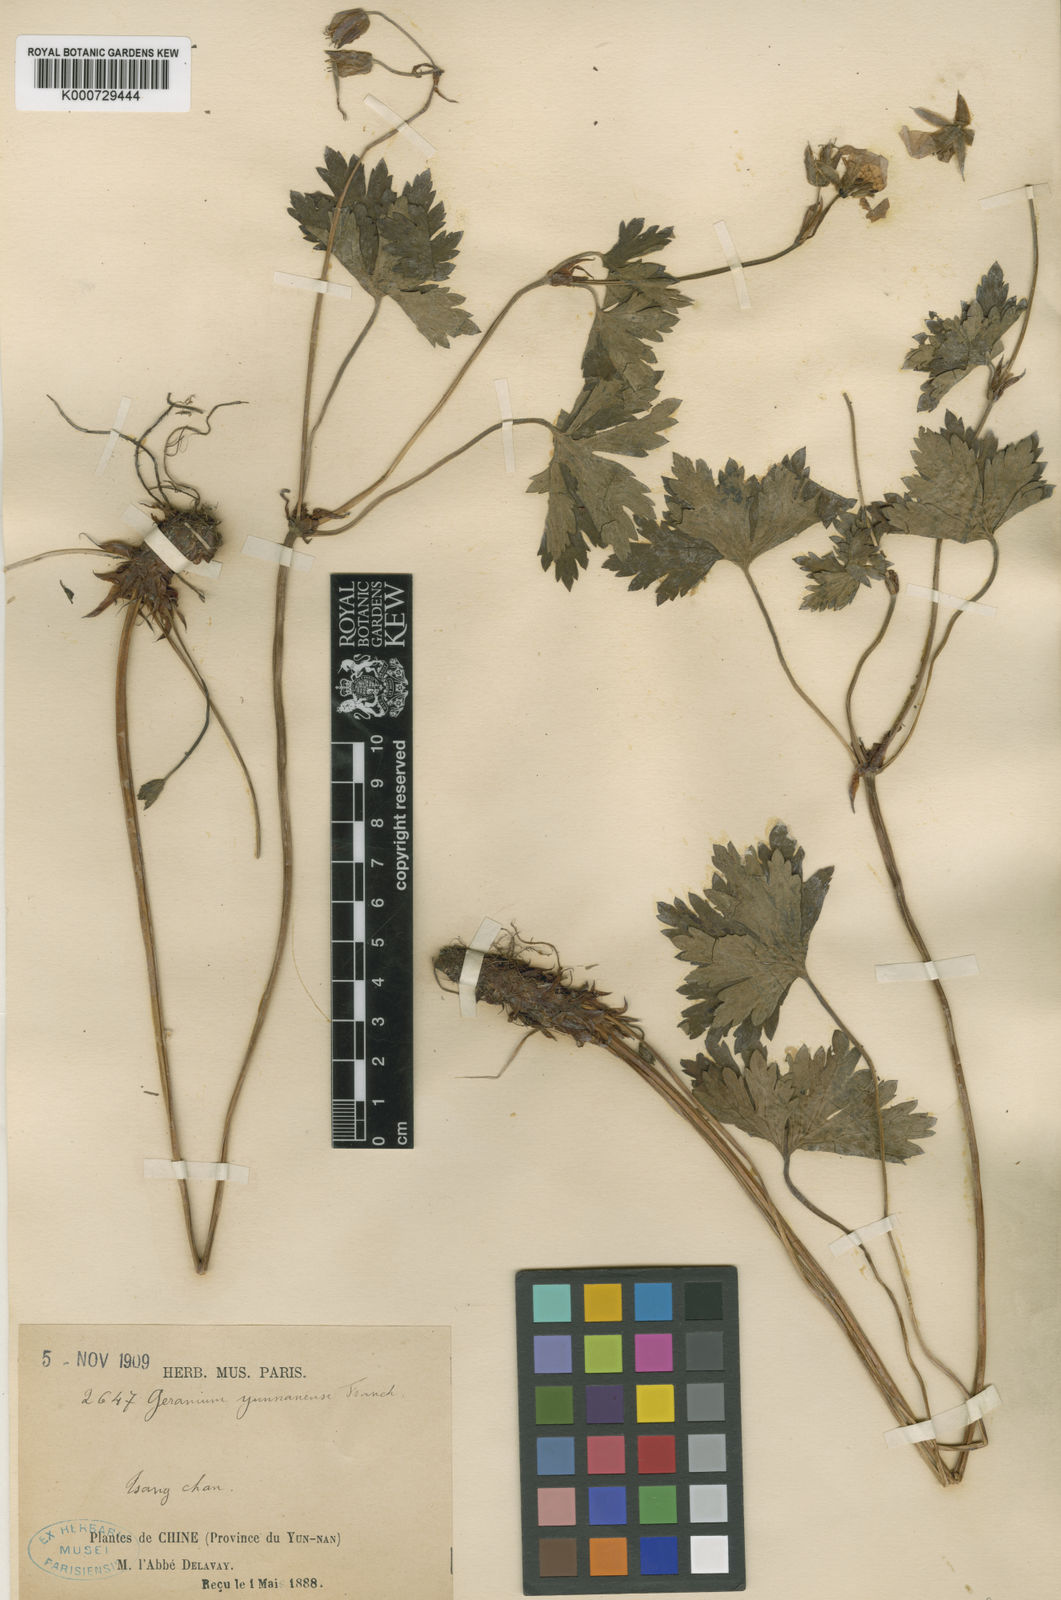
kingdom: Plantae
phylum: Tracheophyta
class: Magnoliopsida
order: Geraniales
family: Geraniaceae
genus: Geranium
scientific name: Geranium yunnanense
